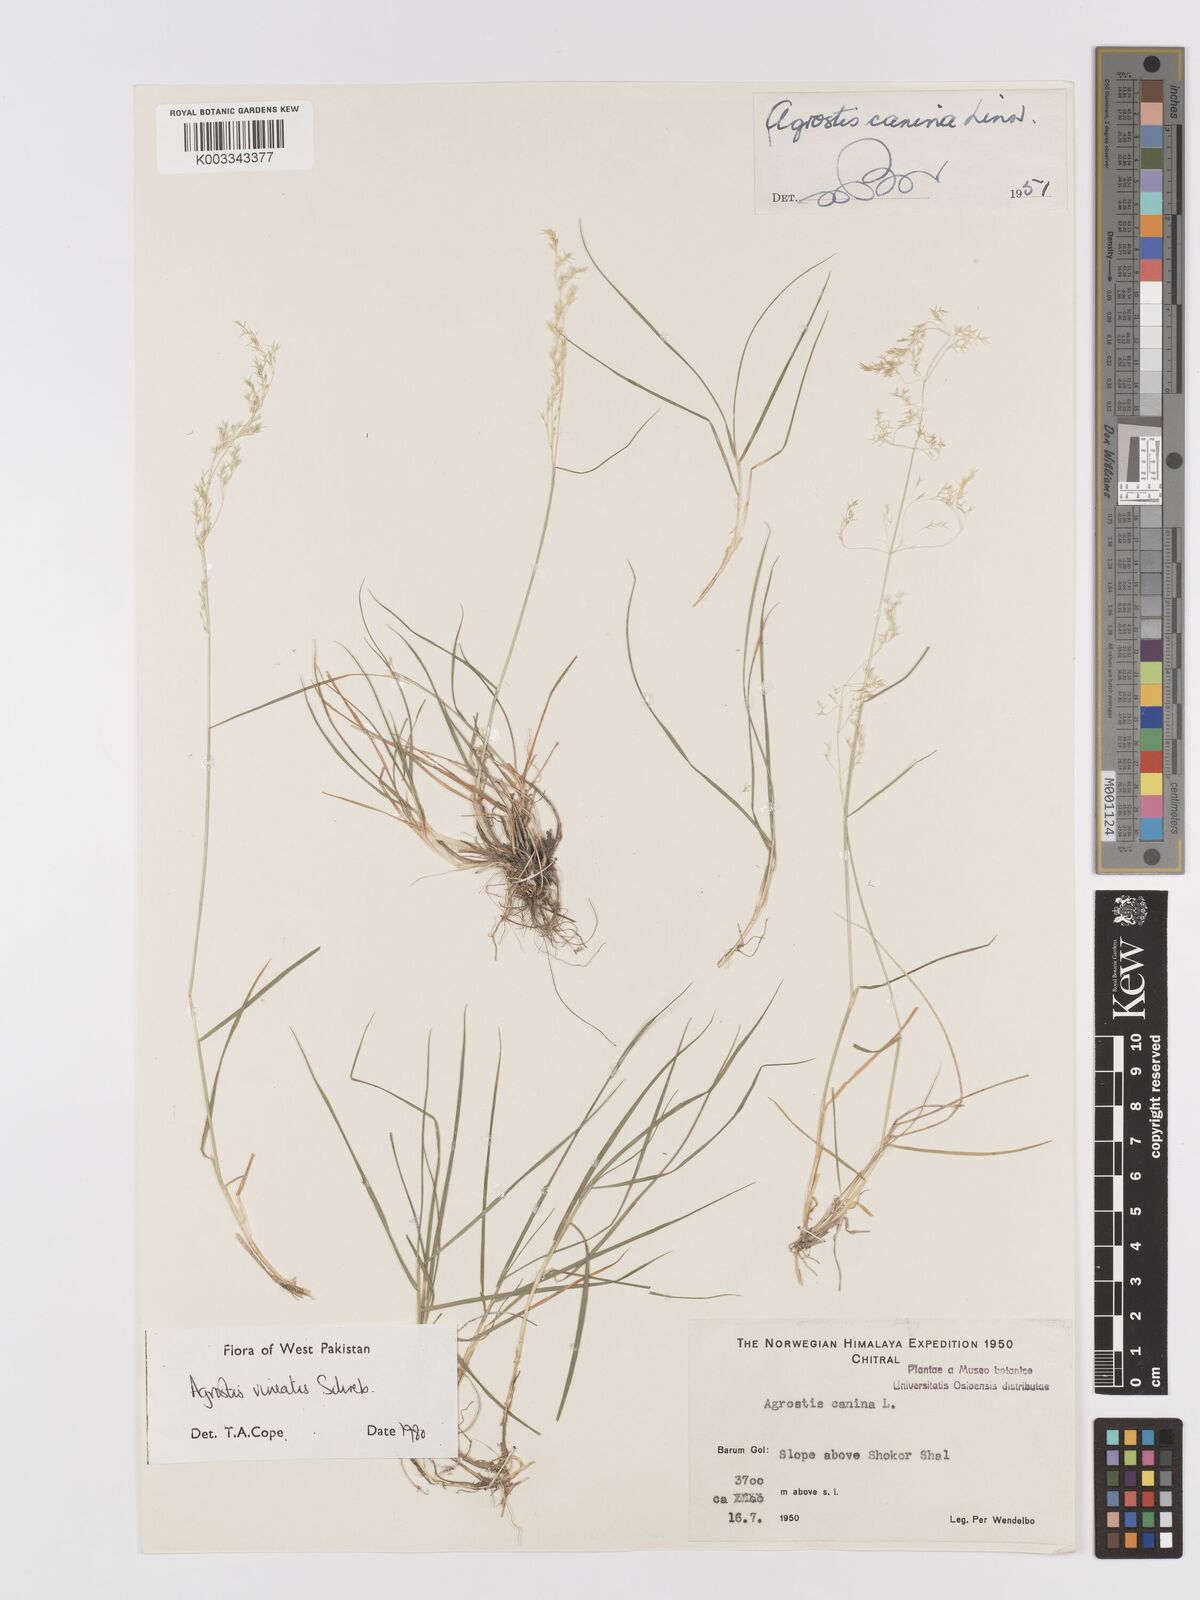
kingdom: Plantae
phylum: Tracheophyta
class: Liliopsida
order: Poales
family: Poaceae
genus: Agrostis
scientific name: Agrostis vinealis
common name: Brown bent
